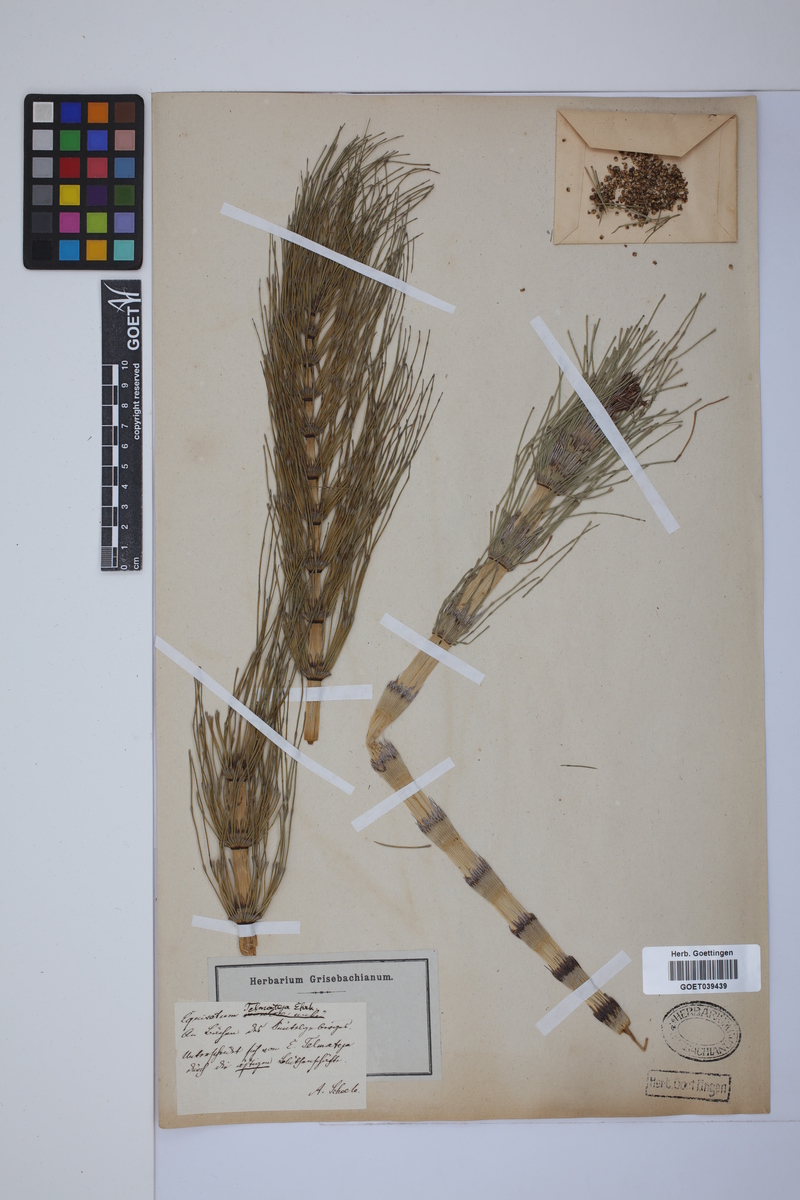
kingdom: Plantae
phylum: Tracheophyta
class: Polypodiopsida
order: Equisetales
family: Equisetaceae
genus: Equisetum
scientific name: Equisetum telmateia
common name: Great horsetail
